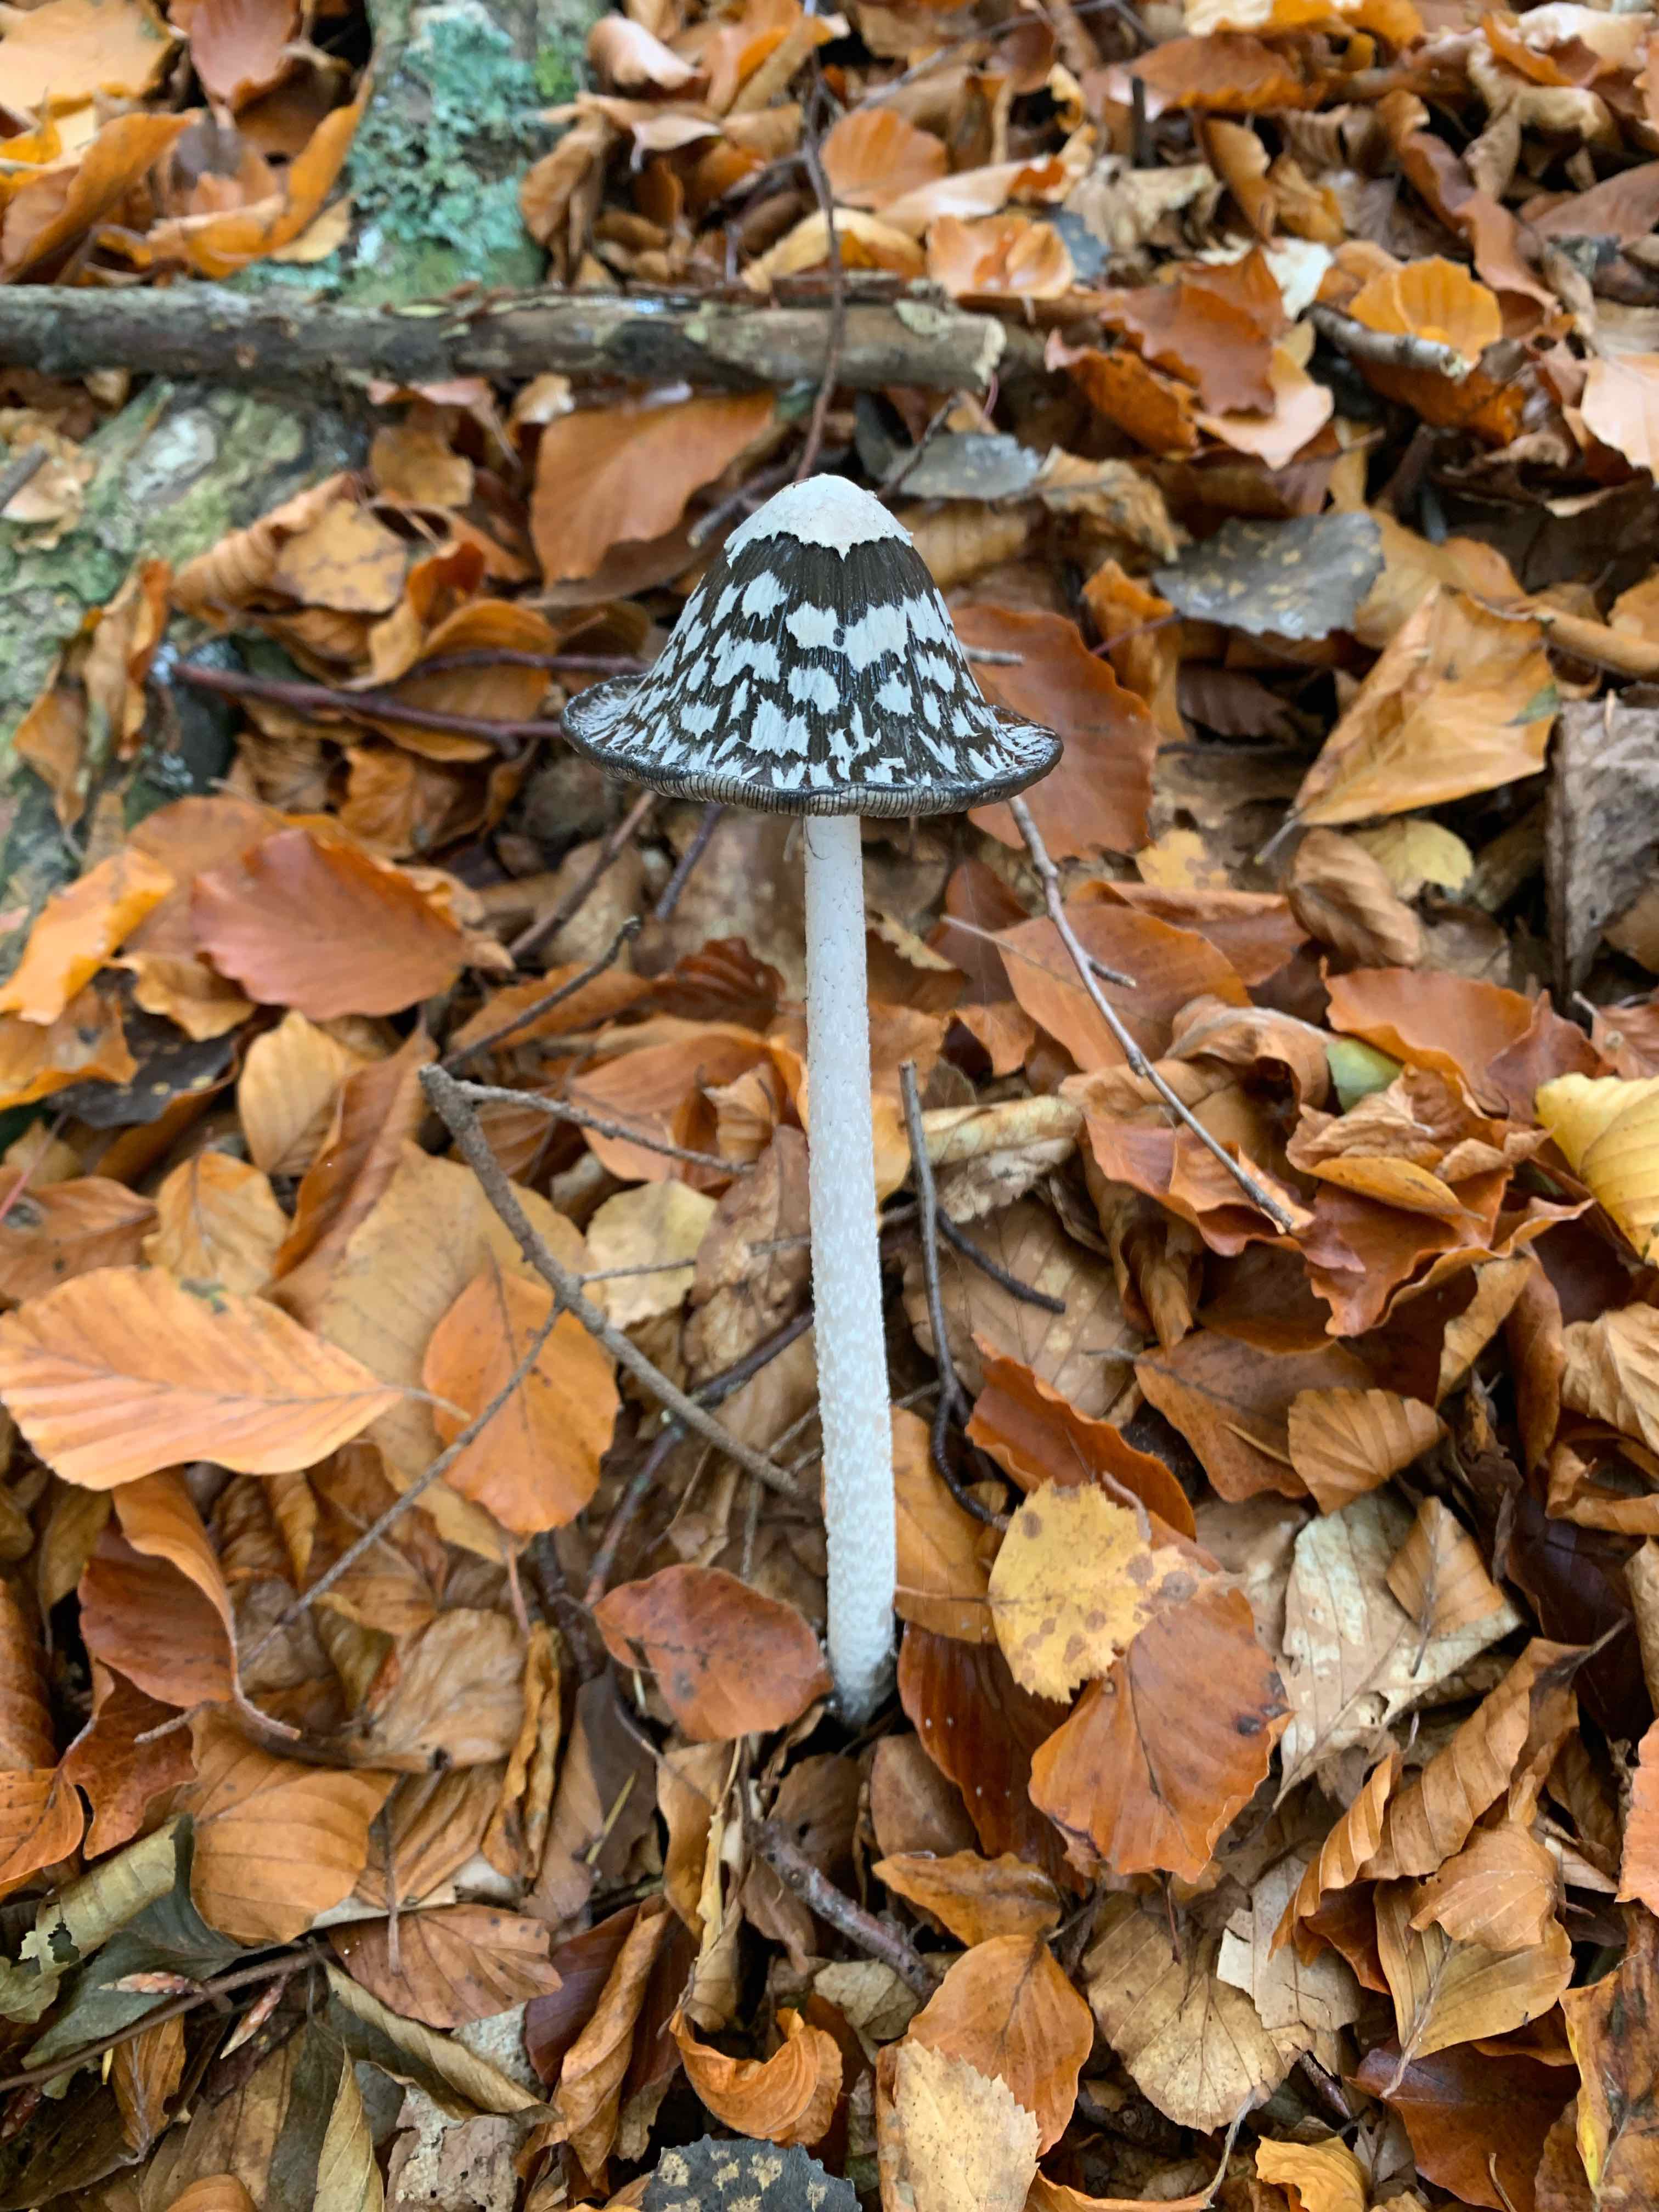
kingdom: Fungi
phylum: Basidiomycota
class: Agaricomycetes
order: Agaricales
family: Psathyrellaceae
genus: Coprinopsis
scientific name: Coprinopsis picacea
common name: skade-blækhat
